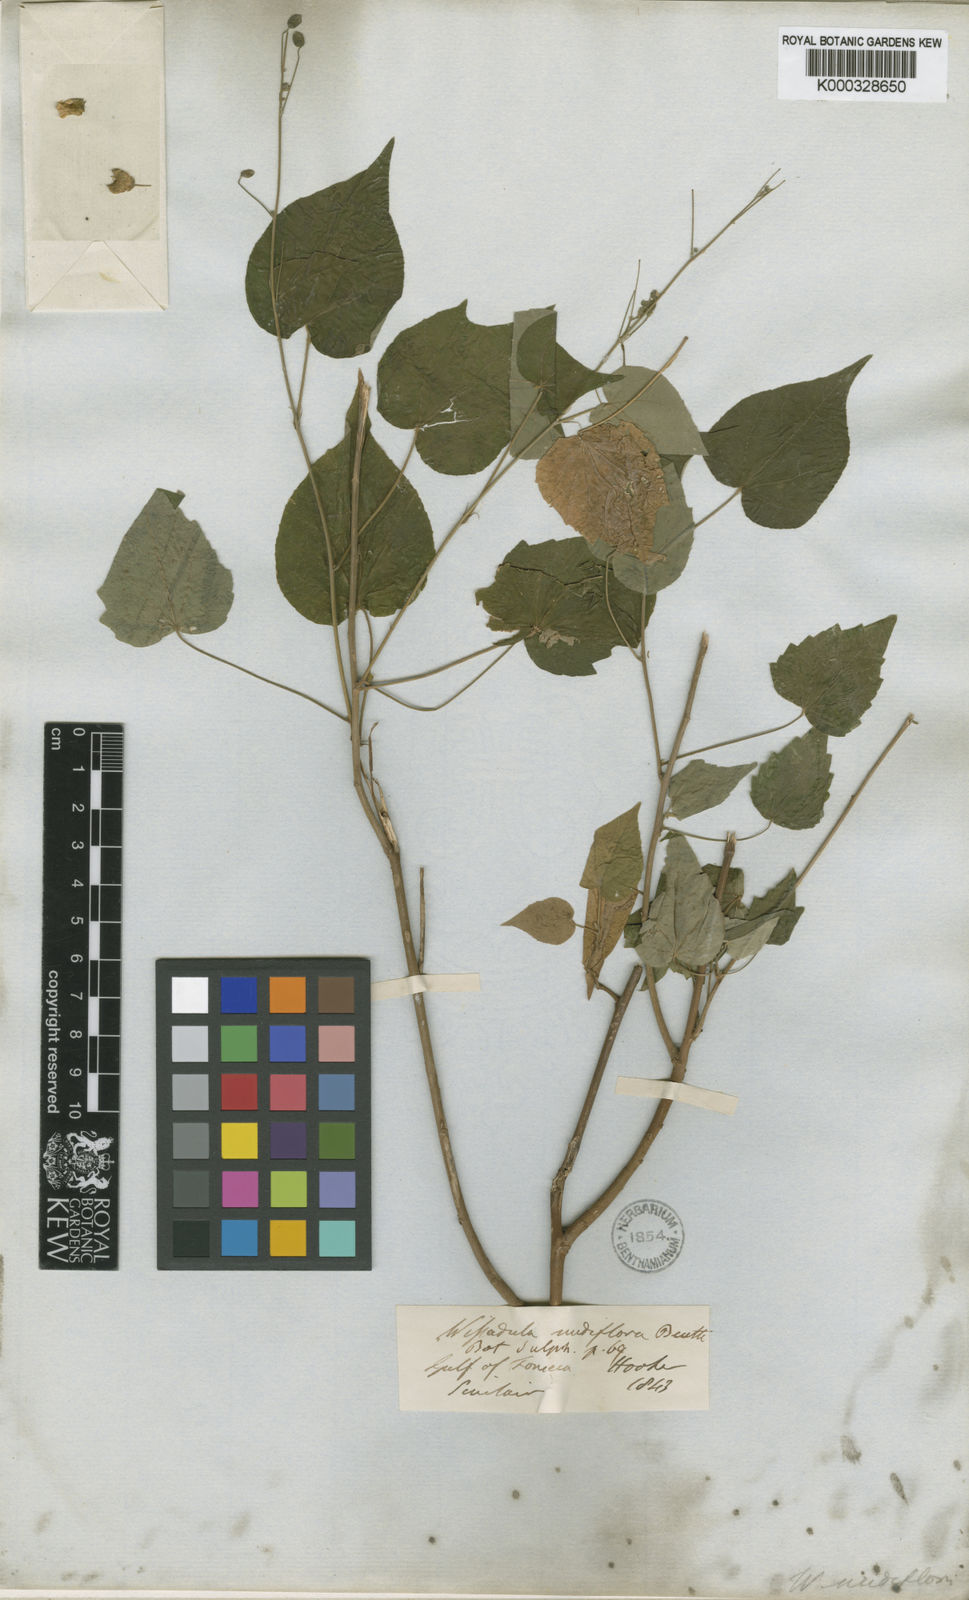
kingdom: Plantae
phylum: Tracheophyta
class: Magnoliopsida
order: Malvales
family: Malvaceae
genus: Wissadula
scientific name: Wissadula
